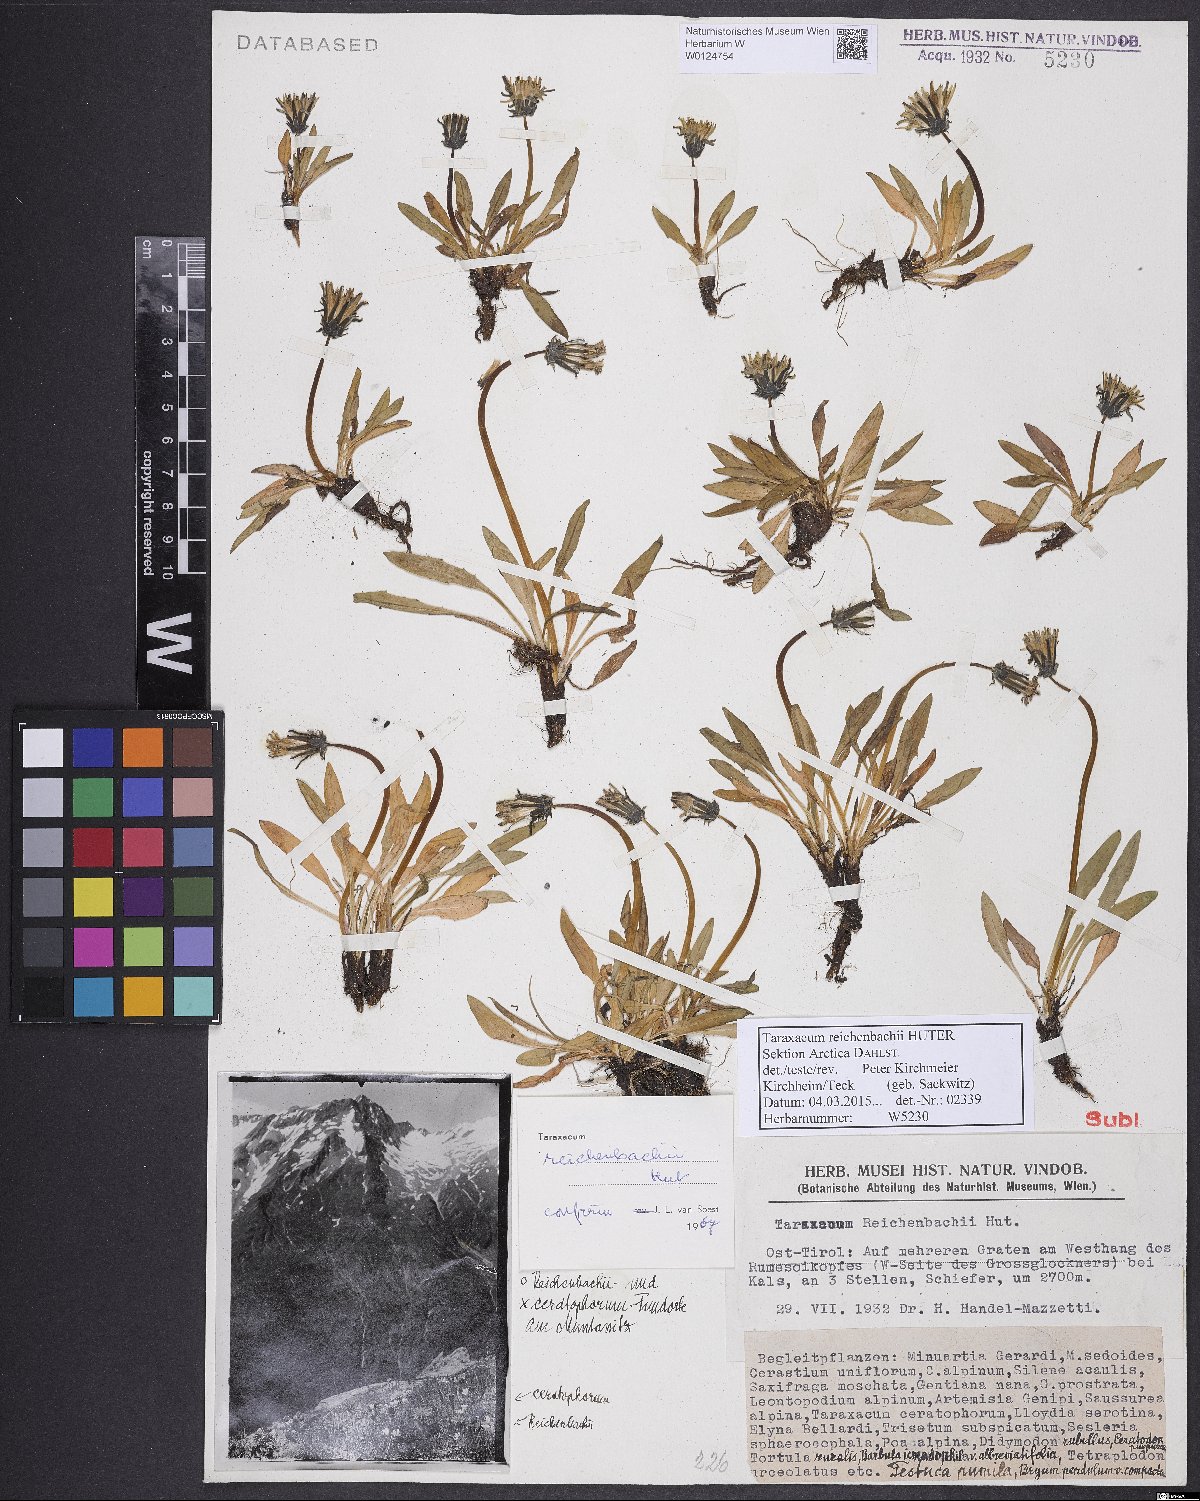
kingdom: Plantae
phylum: Tracheophyta
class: Magnoliopsida
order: Asterales
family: Asteraceae
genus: Taraxacum
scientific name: Taraxacum reichenbachii
